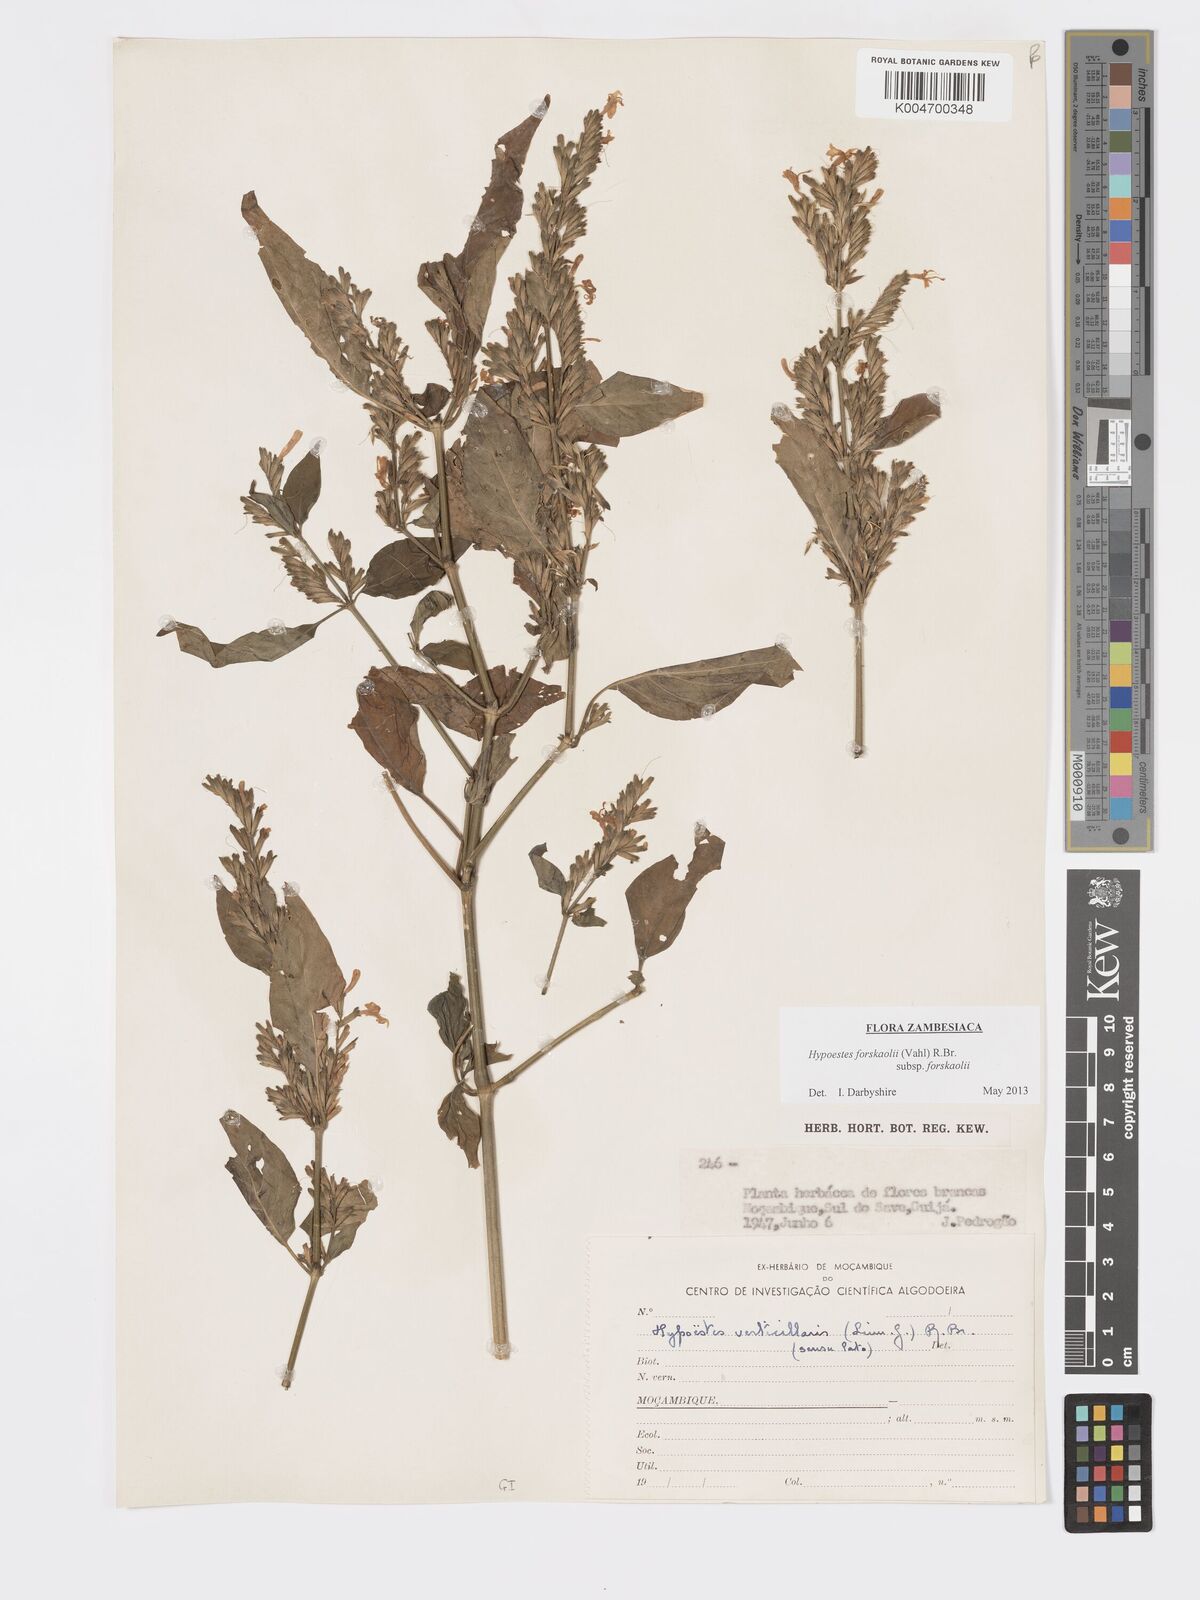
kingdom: Plantae
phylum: Tracheophyta
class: Magnoliopsida
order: Lamiales
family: Acanthaceae
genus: Hypoestes
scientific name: Hypoestes forskaolii
